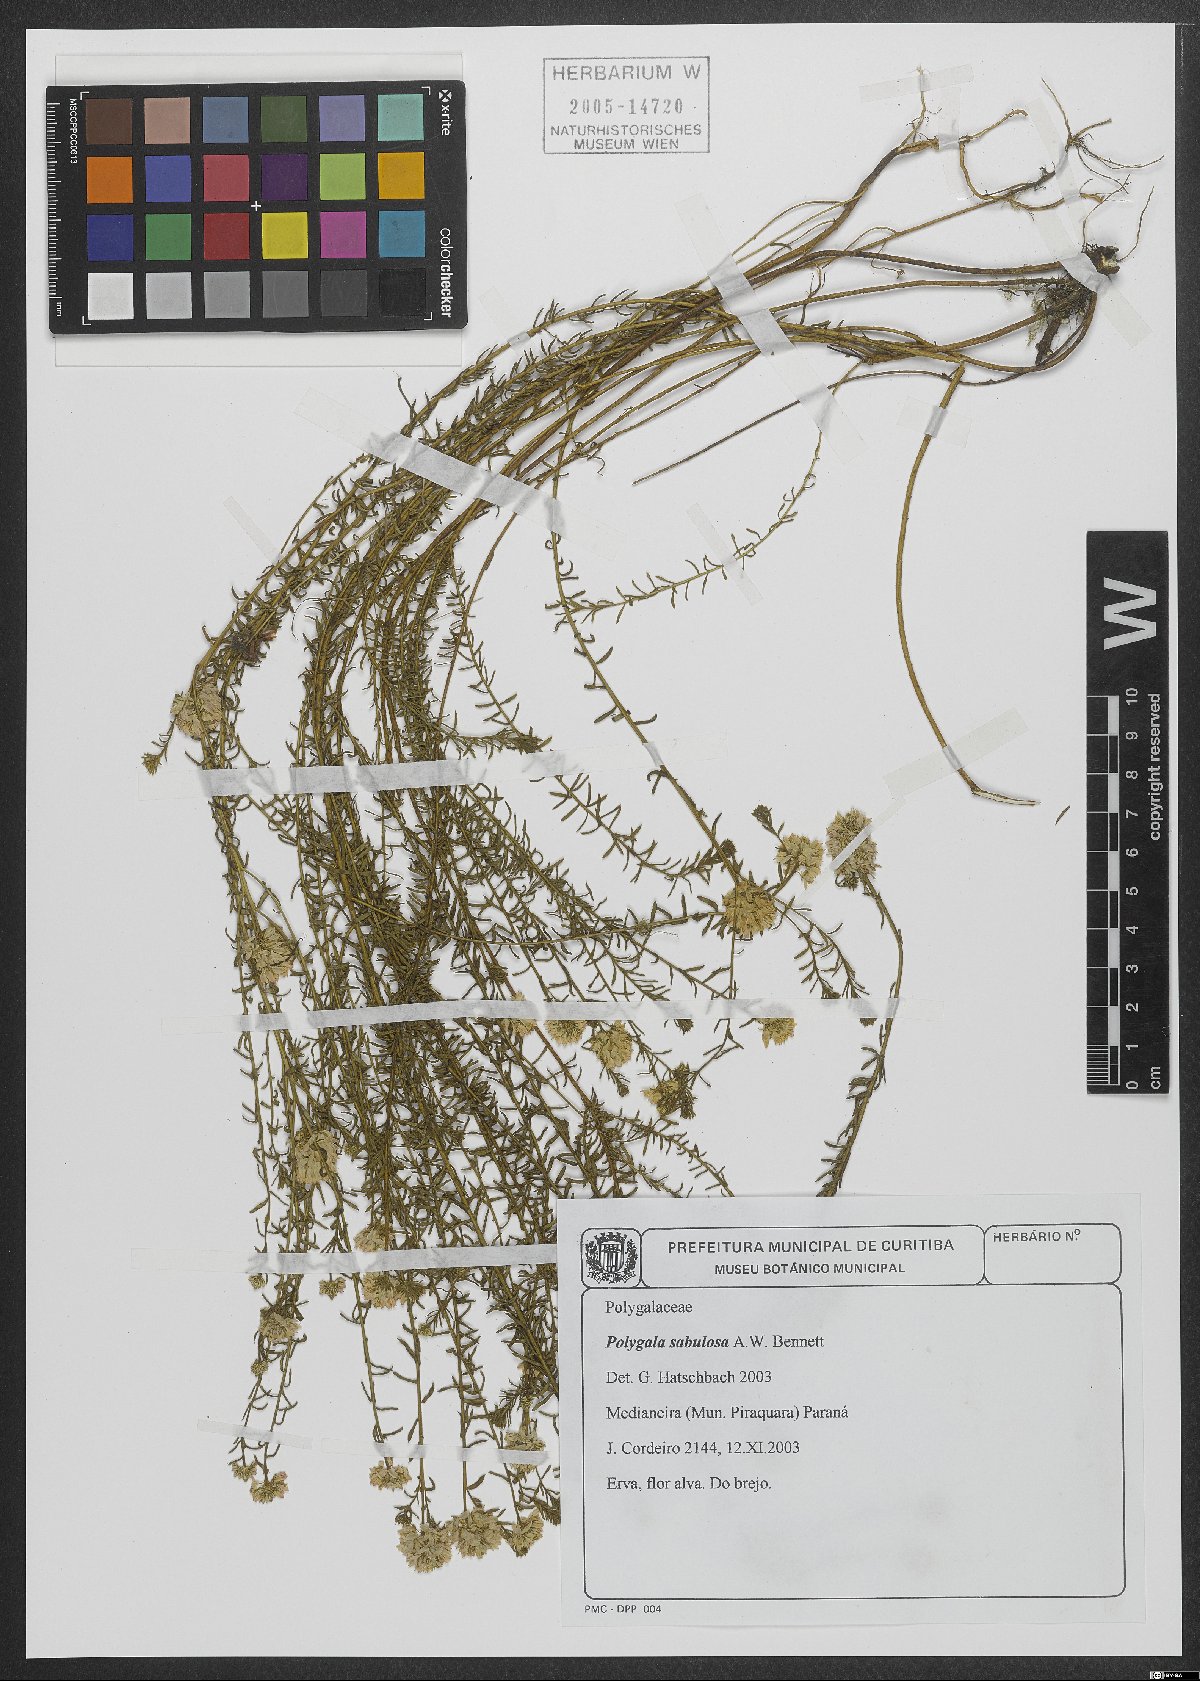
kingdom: Plantae
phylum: Tracheophyta
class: Magnoliopsida
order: Fabales
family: Polygalaceae
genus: Polygala
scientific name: Polygala sellowiana
